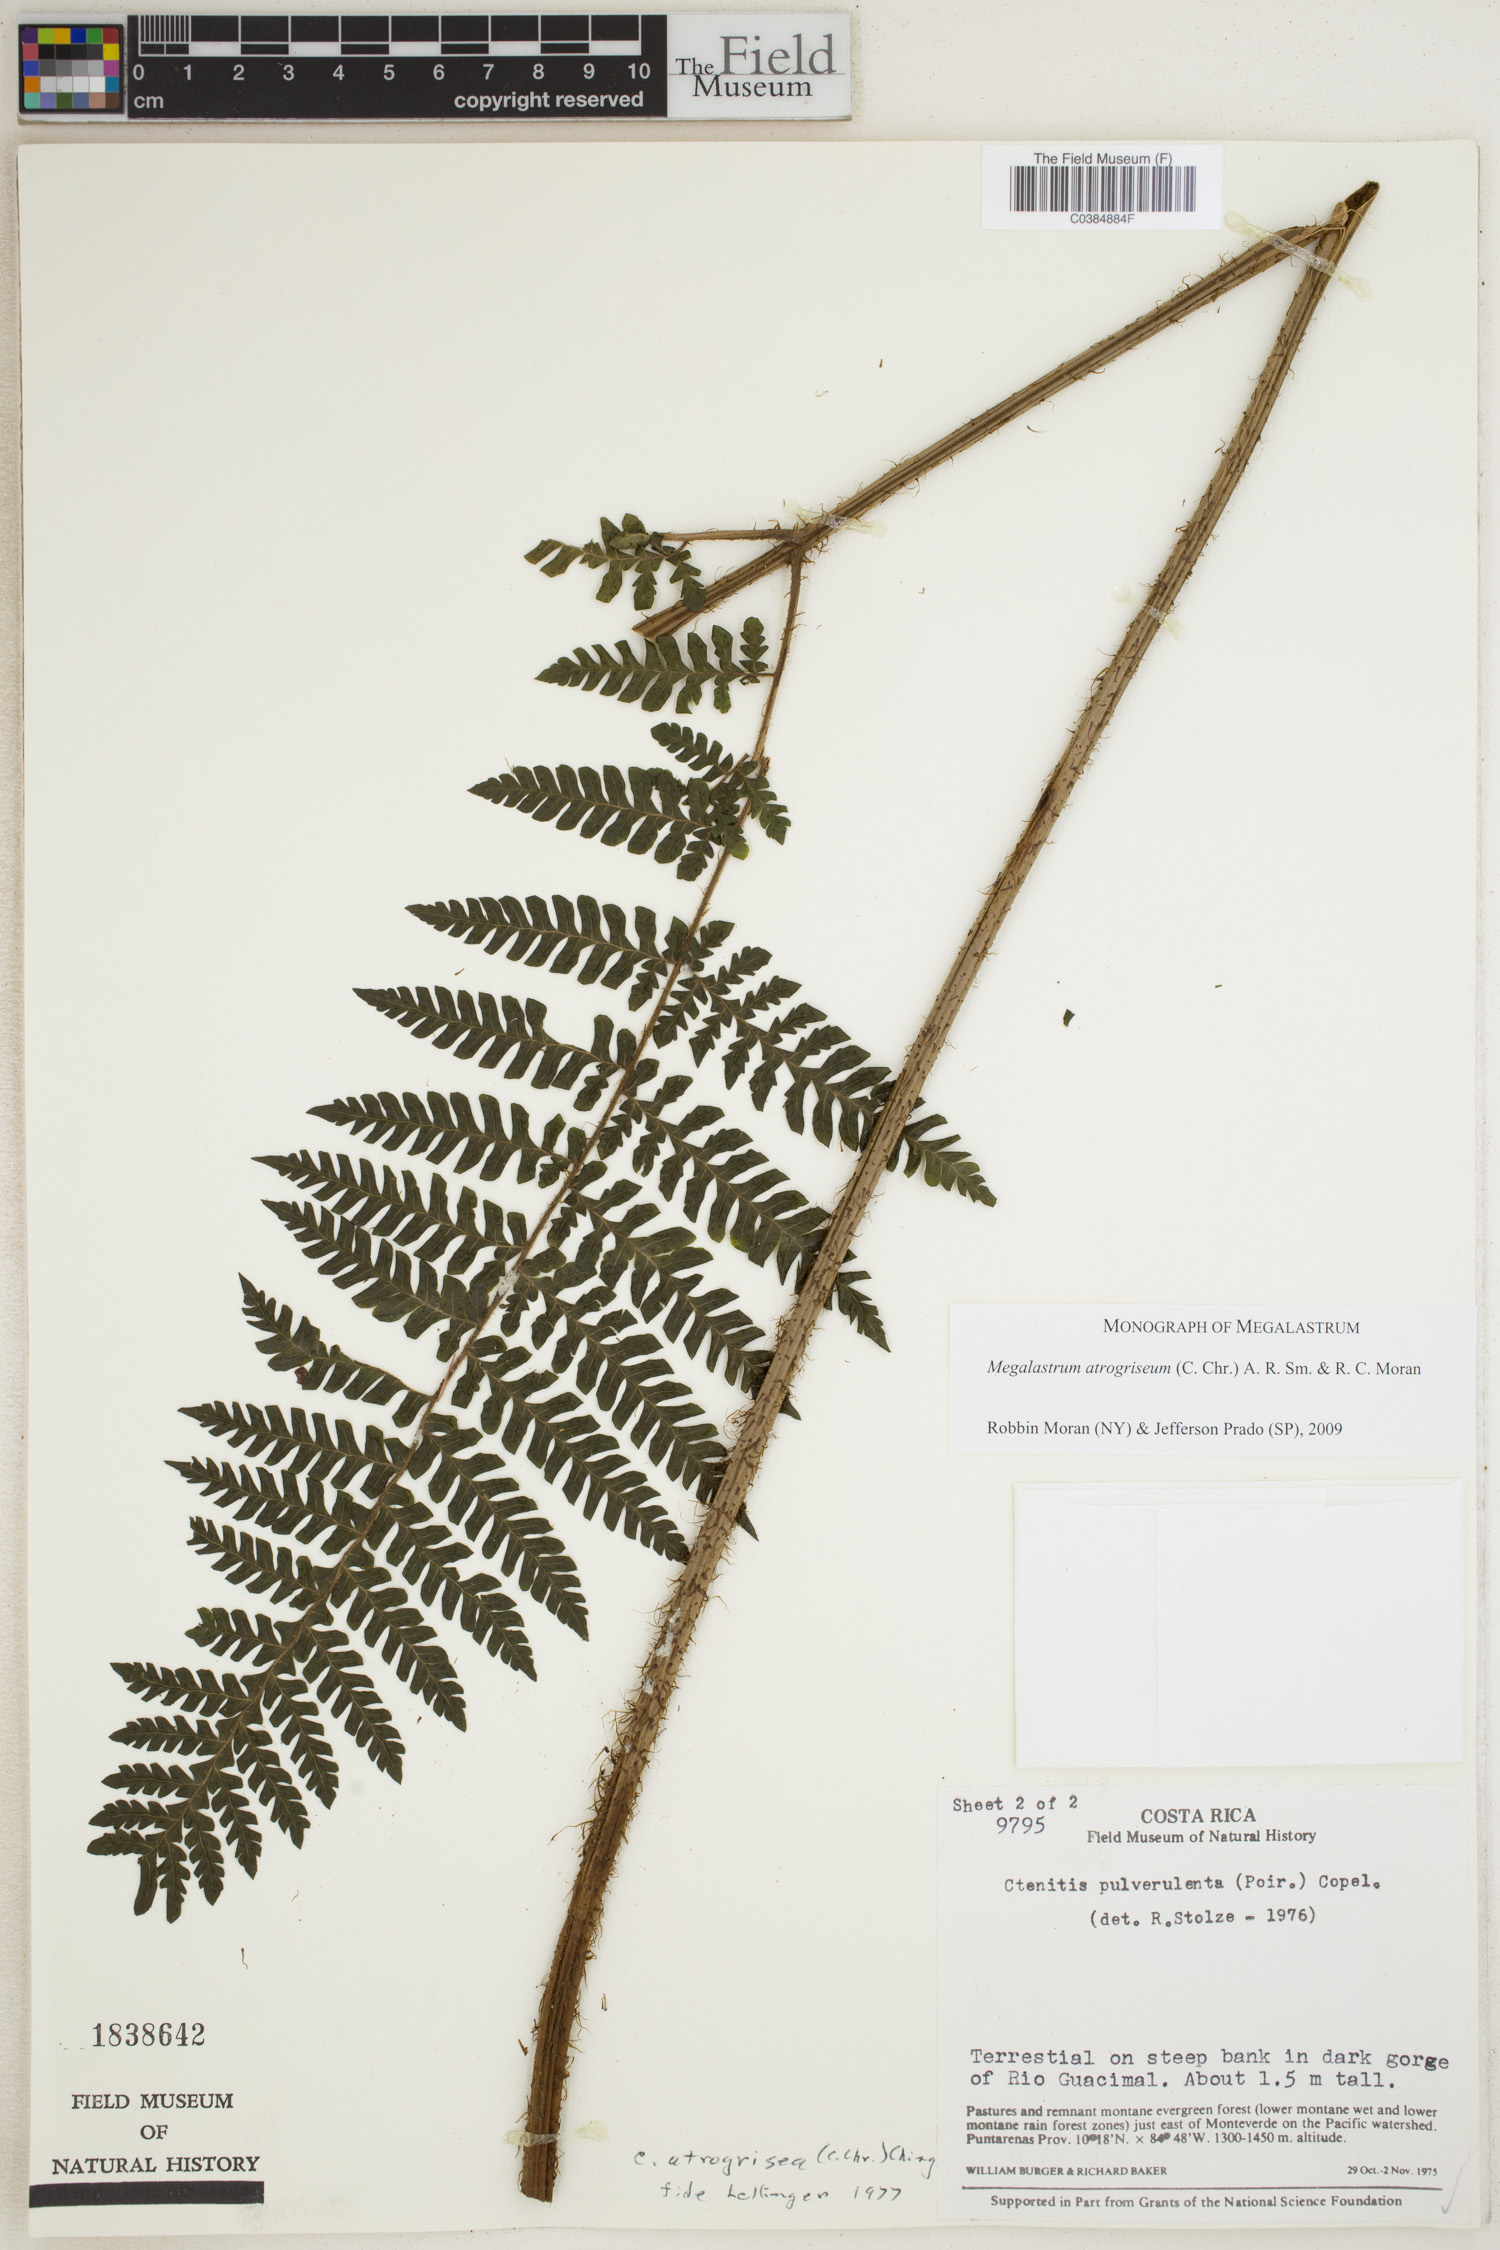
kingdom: Plantae
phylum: Tracheophyta
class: Polypodiopsida
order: Polypodiales
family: Dryopteridaceae
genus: Megalastrum
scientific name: Megalastrum atrogriseum
